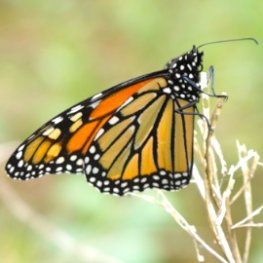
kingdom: Animalia
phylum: Arthropoda
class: Insecta
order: Lepidoptera
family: Nymphalidae
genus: Danaus
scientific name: Danaus plexippus
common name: Monarch
